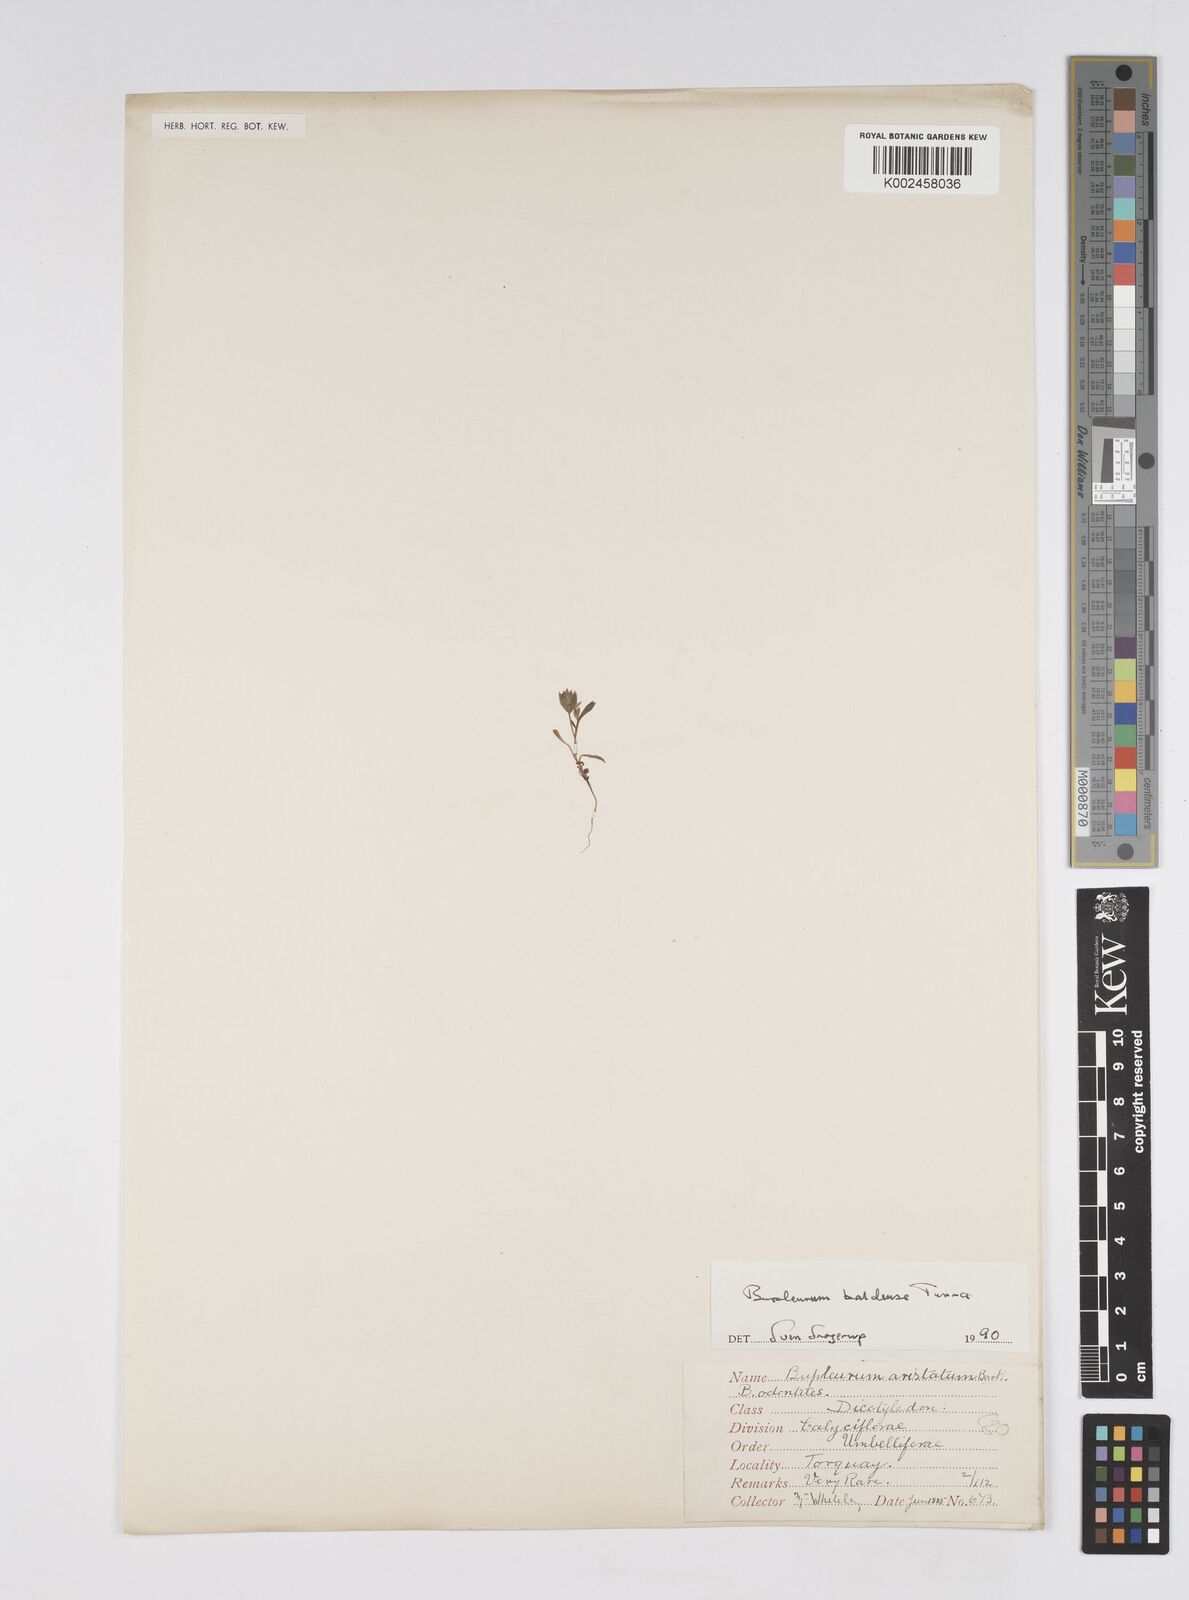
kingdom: Plantae
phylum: Tracheophyta
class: Magnoliopsida
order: Apiales
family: Apiaceae
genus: Bupleurum
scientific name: Bupleurum baldense
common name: Small hare's-ear
